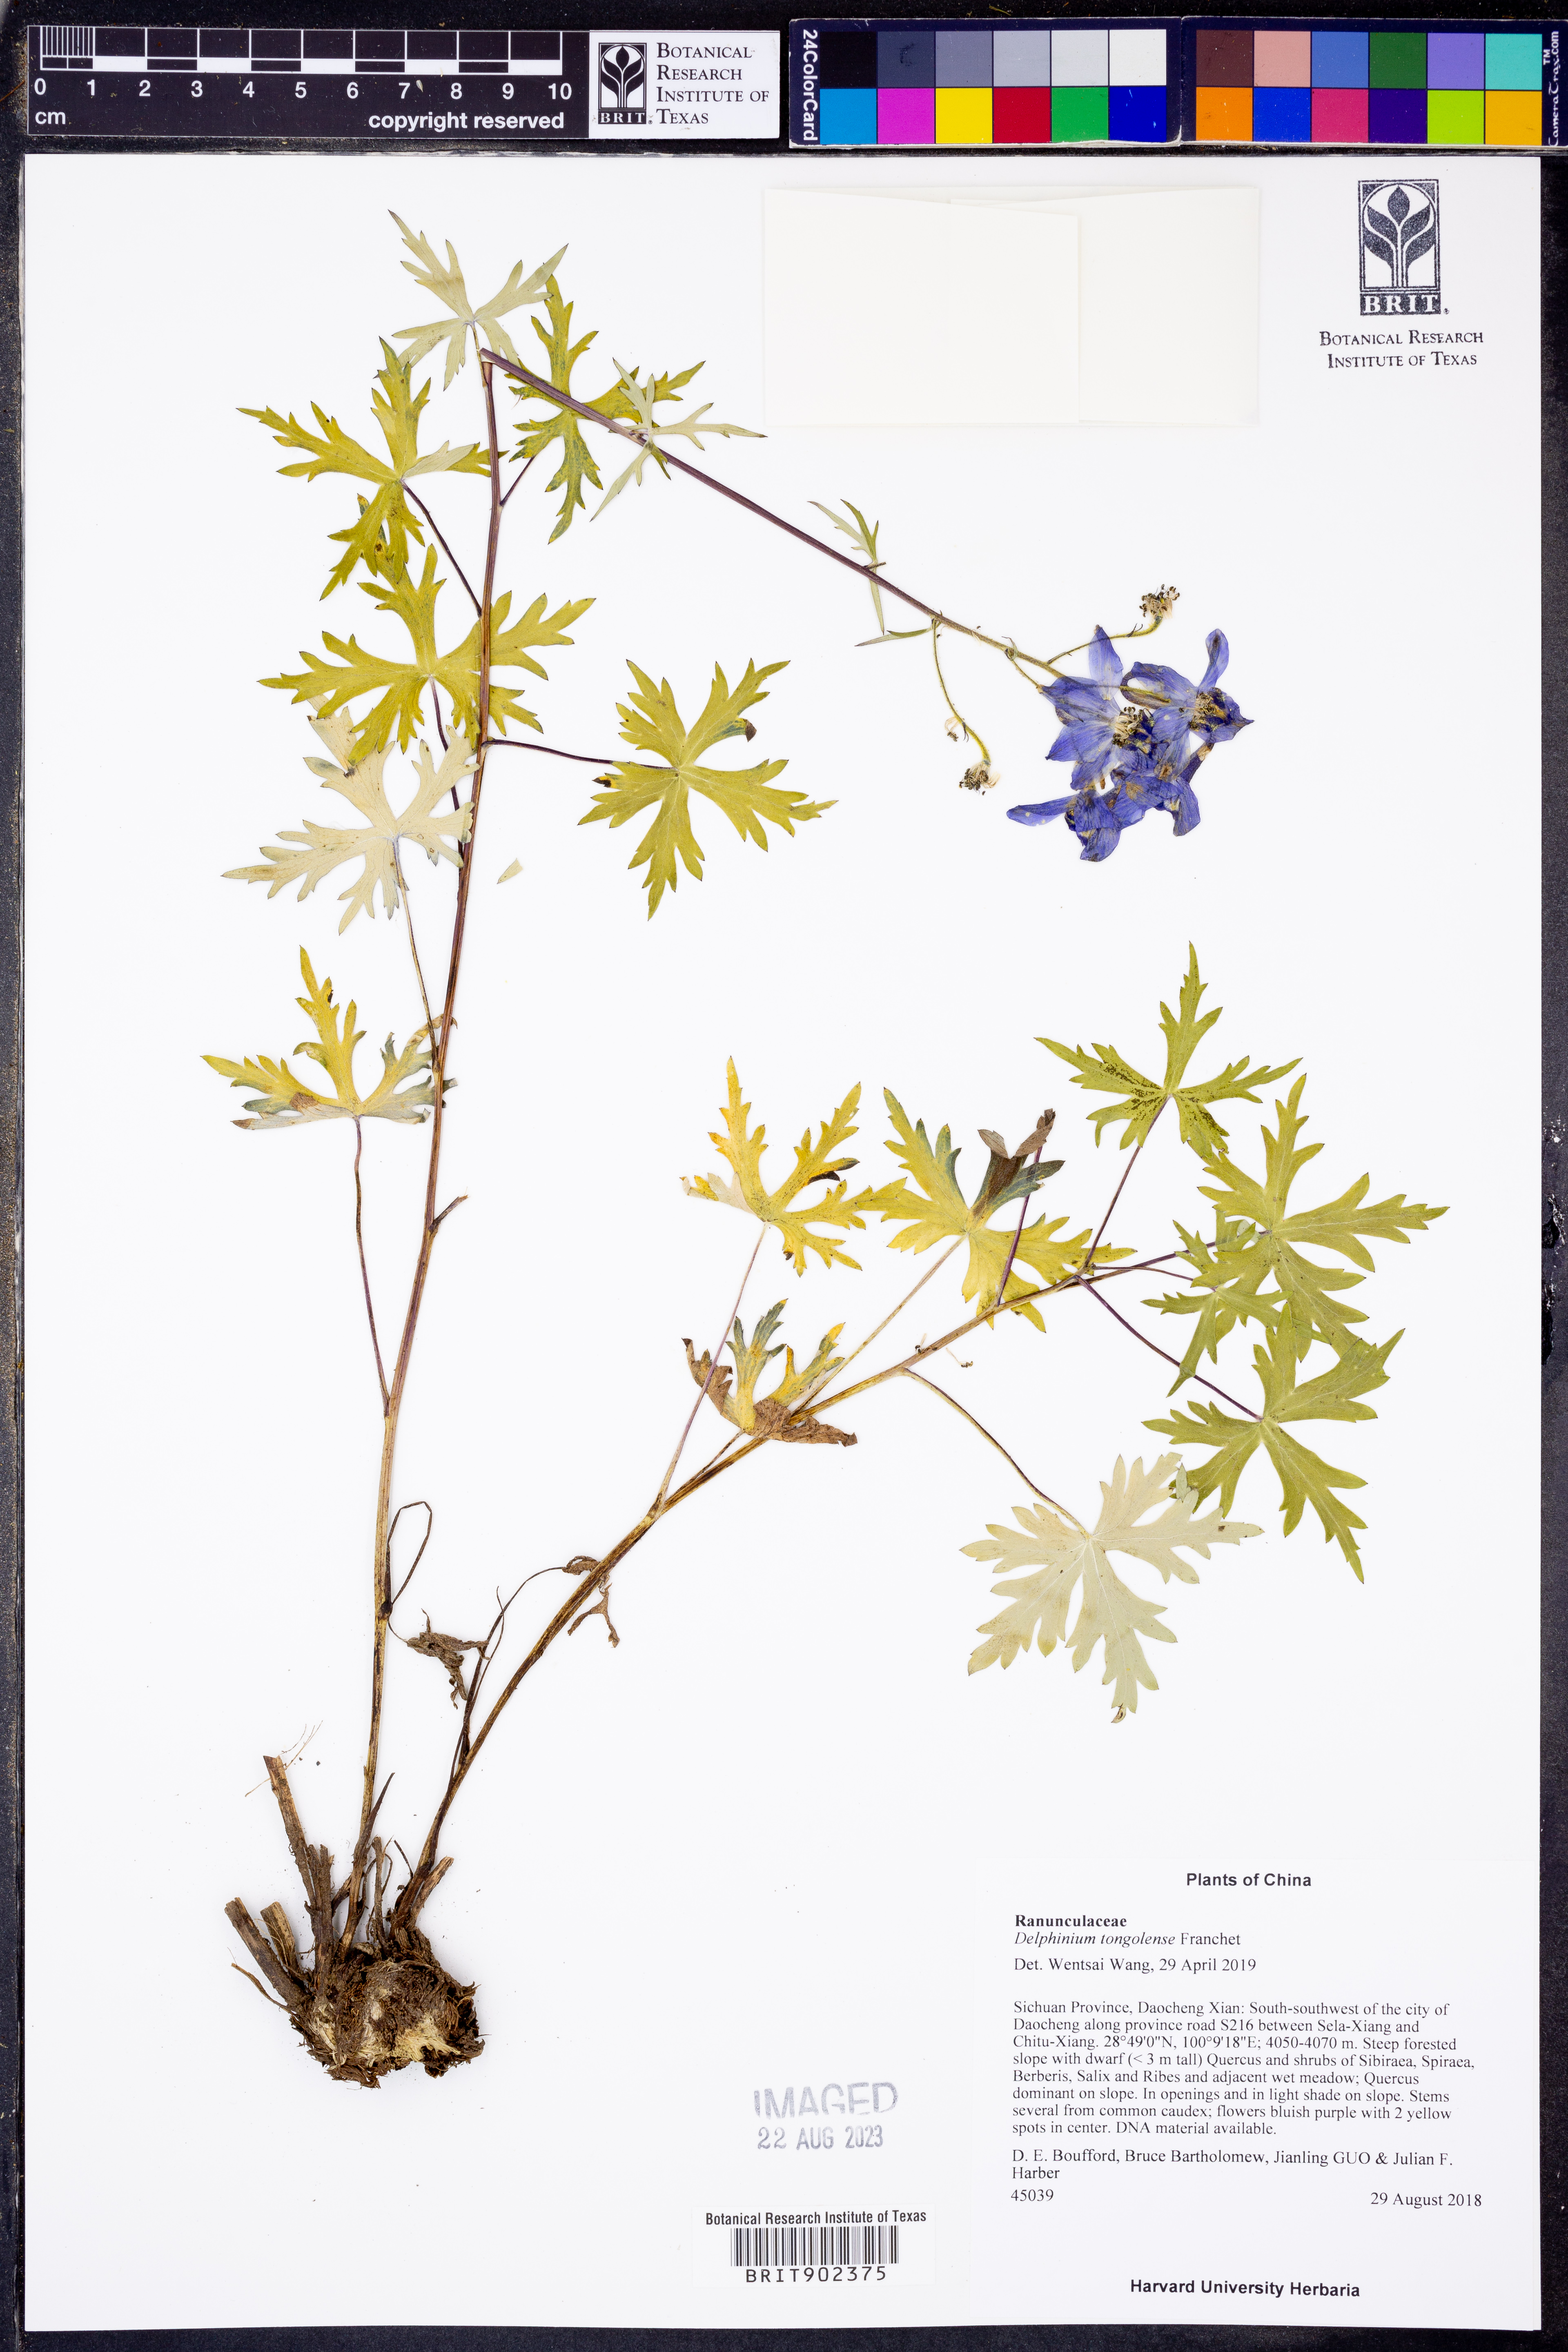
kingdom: Plantae
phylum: Tracheophyta
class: Magnoliopsida
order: Ranunculales
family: Ranunculaceae
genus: Delphinium
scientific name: Delphinium
